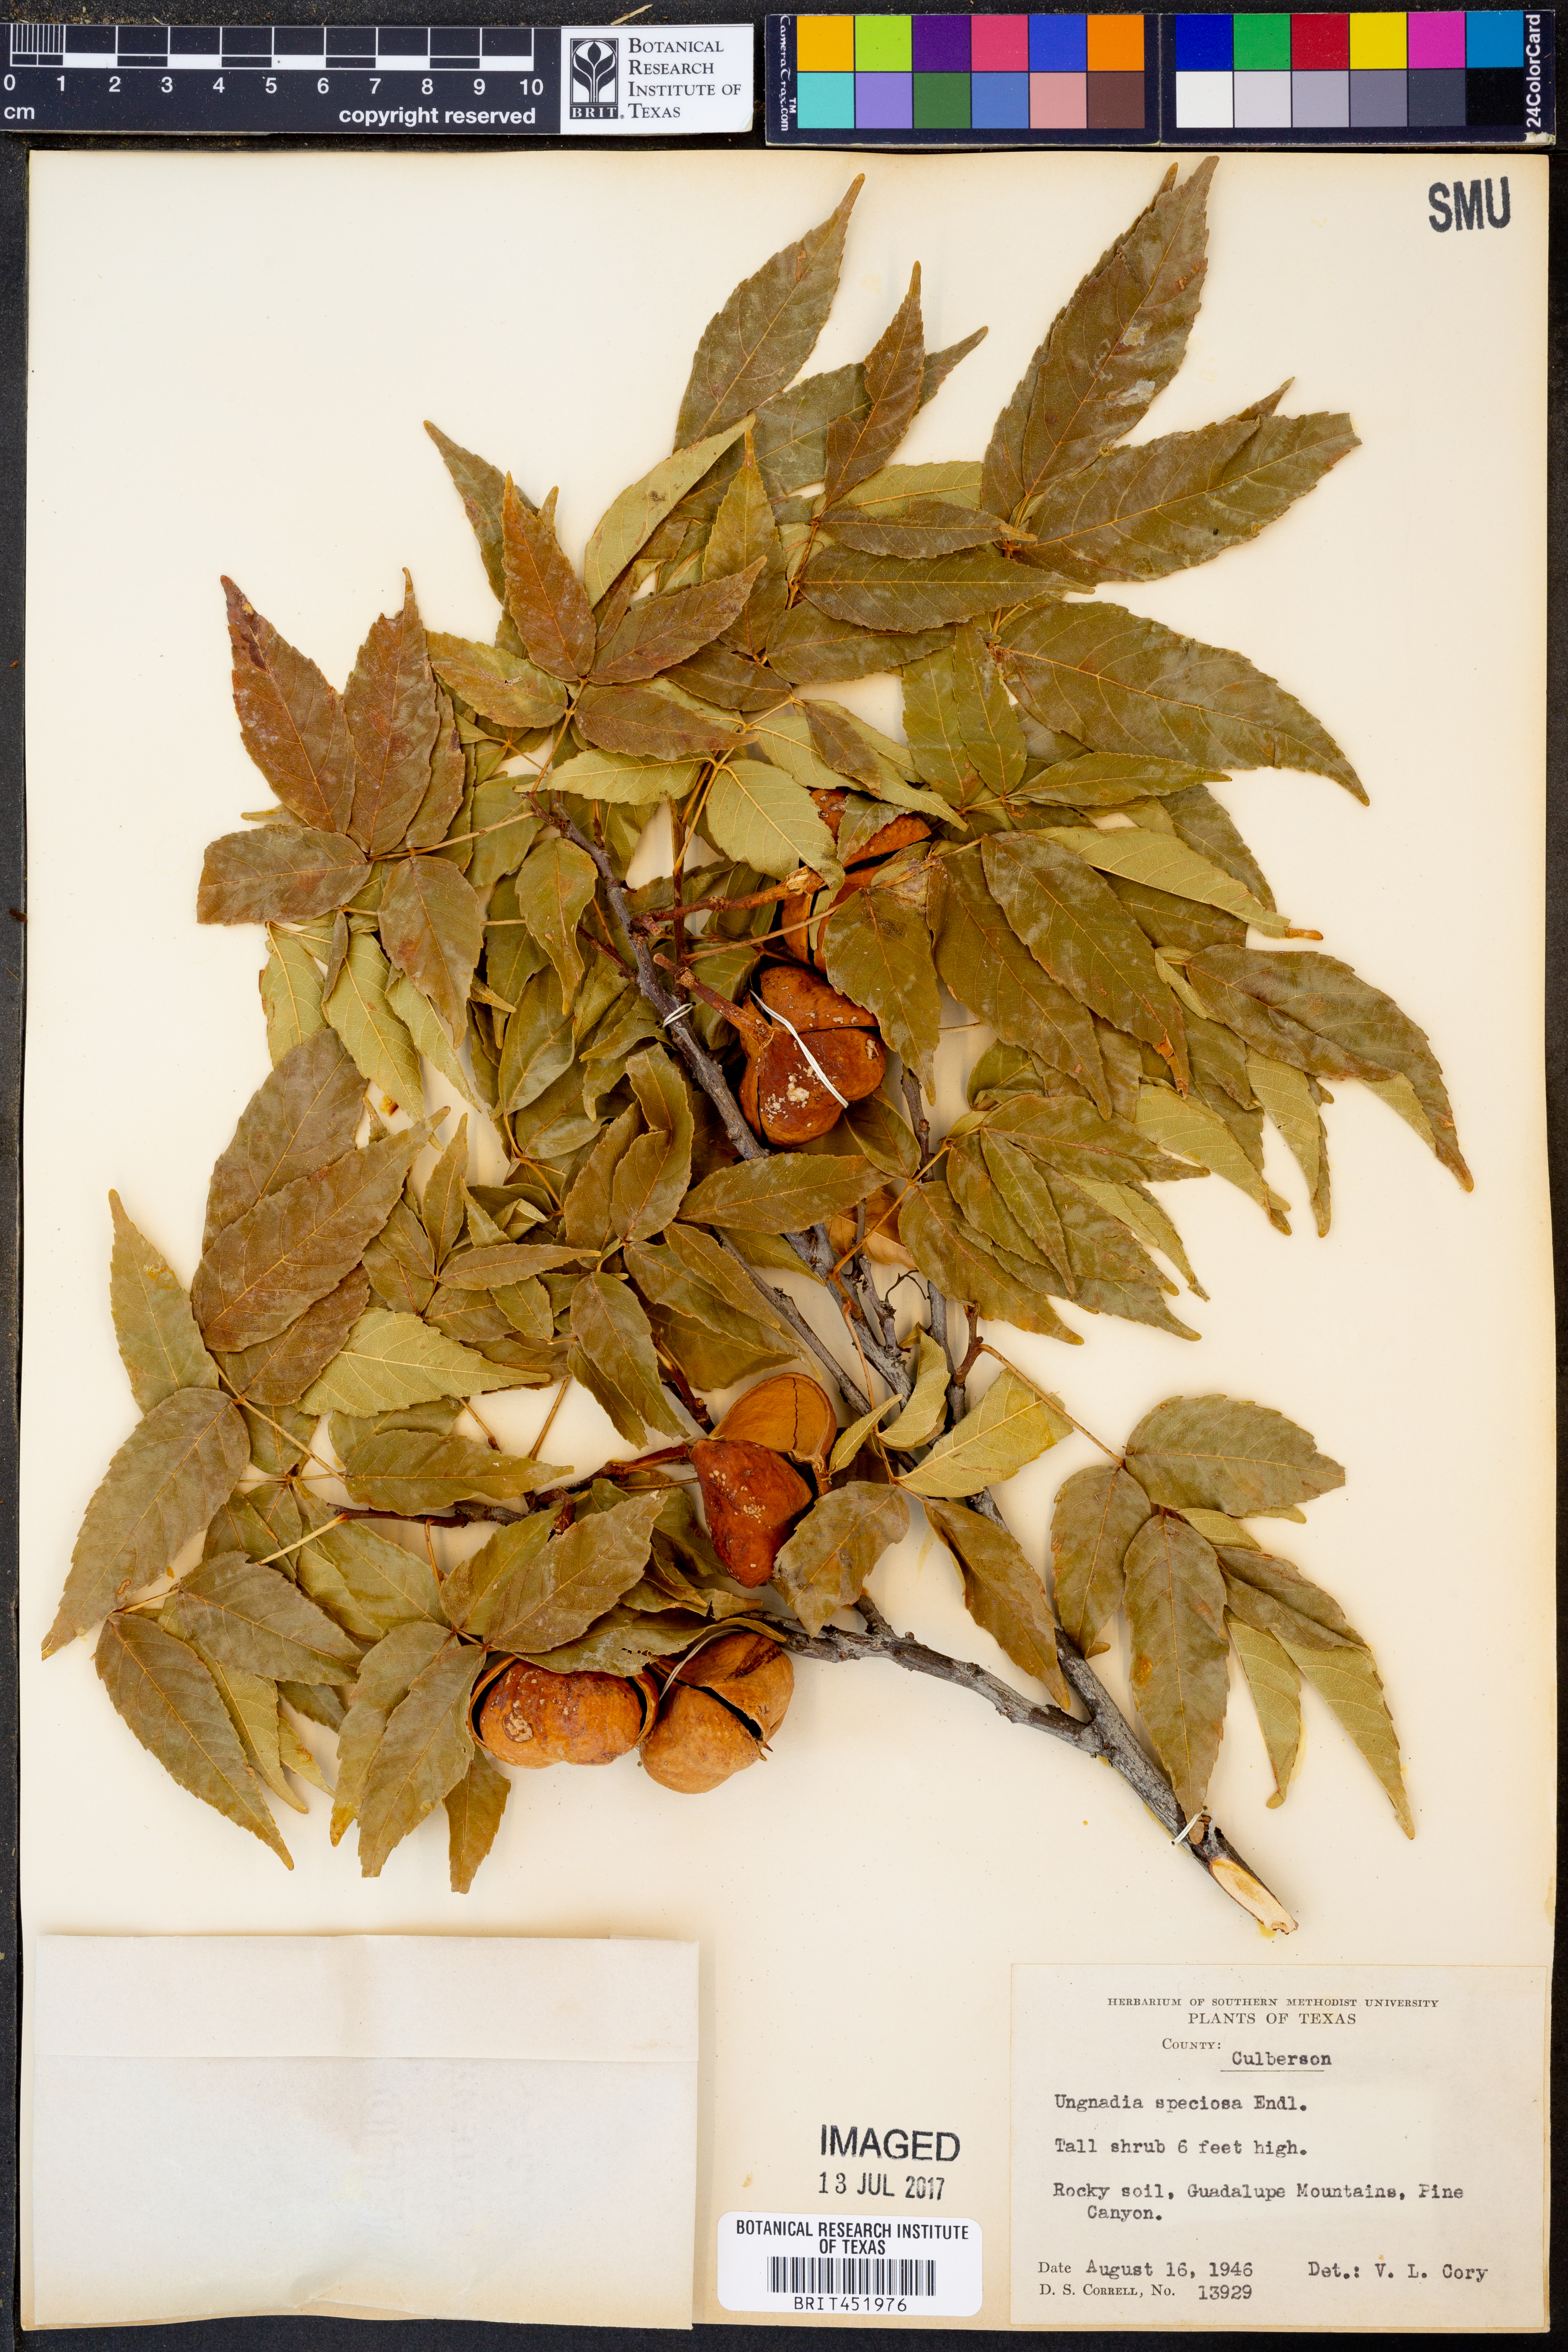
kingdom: Plantae
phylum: Tracheophyta
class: Magnoliopsida
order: Sapindales
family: Sapindaceae
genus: Ungnadia
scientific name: Ungnadia speciosa
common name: Texas-buckeye
